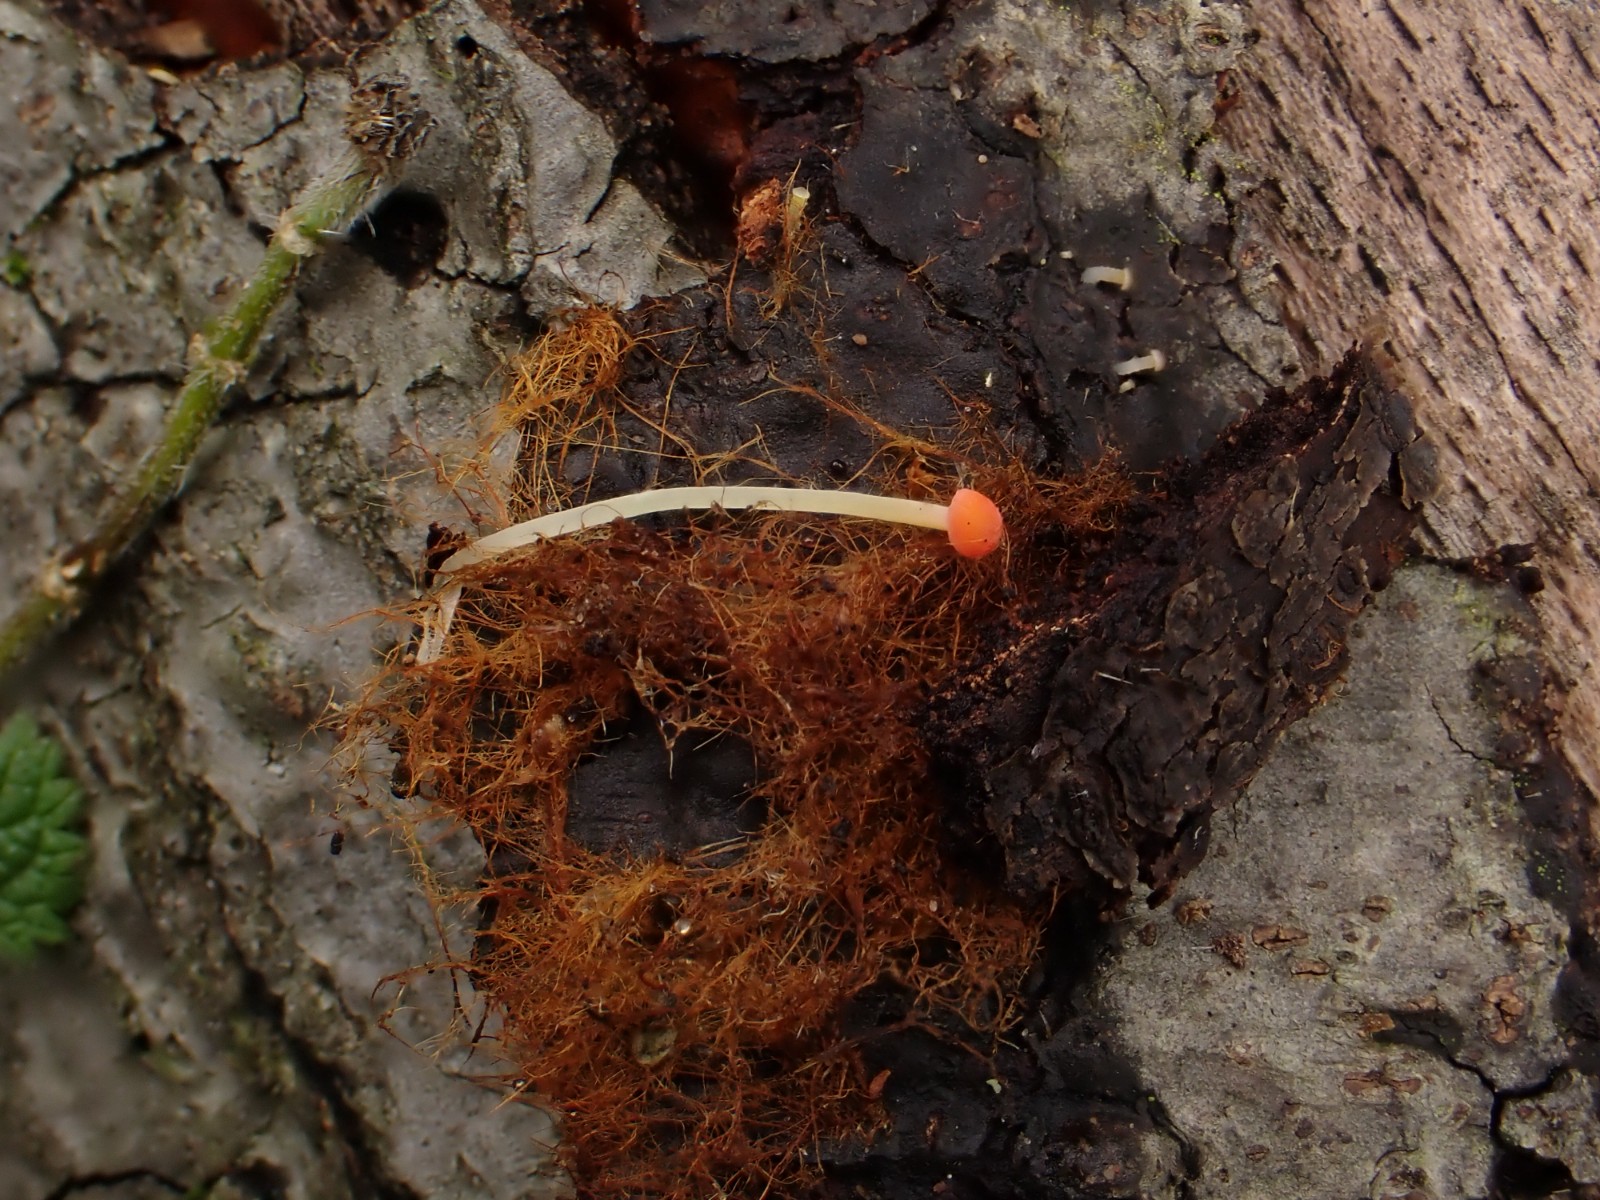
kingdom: Fungi
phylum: Basidiomycota
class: Agaricomycetes
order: Agaricales
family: Mycenaceae
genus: Mycena
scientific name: Mycena acicula
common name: orange huesvamp
